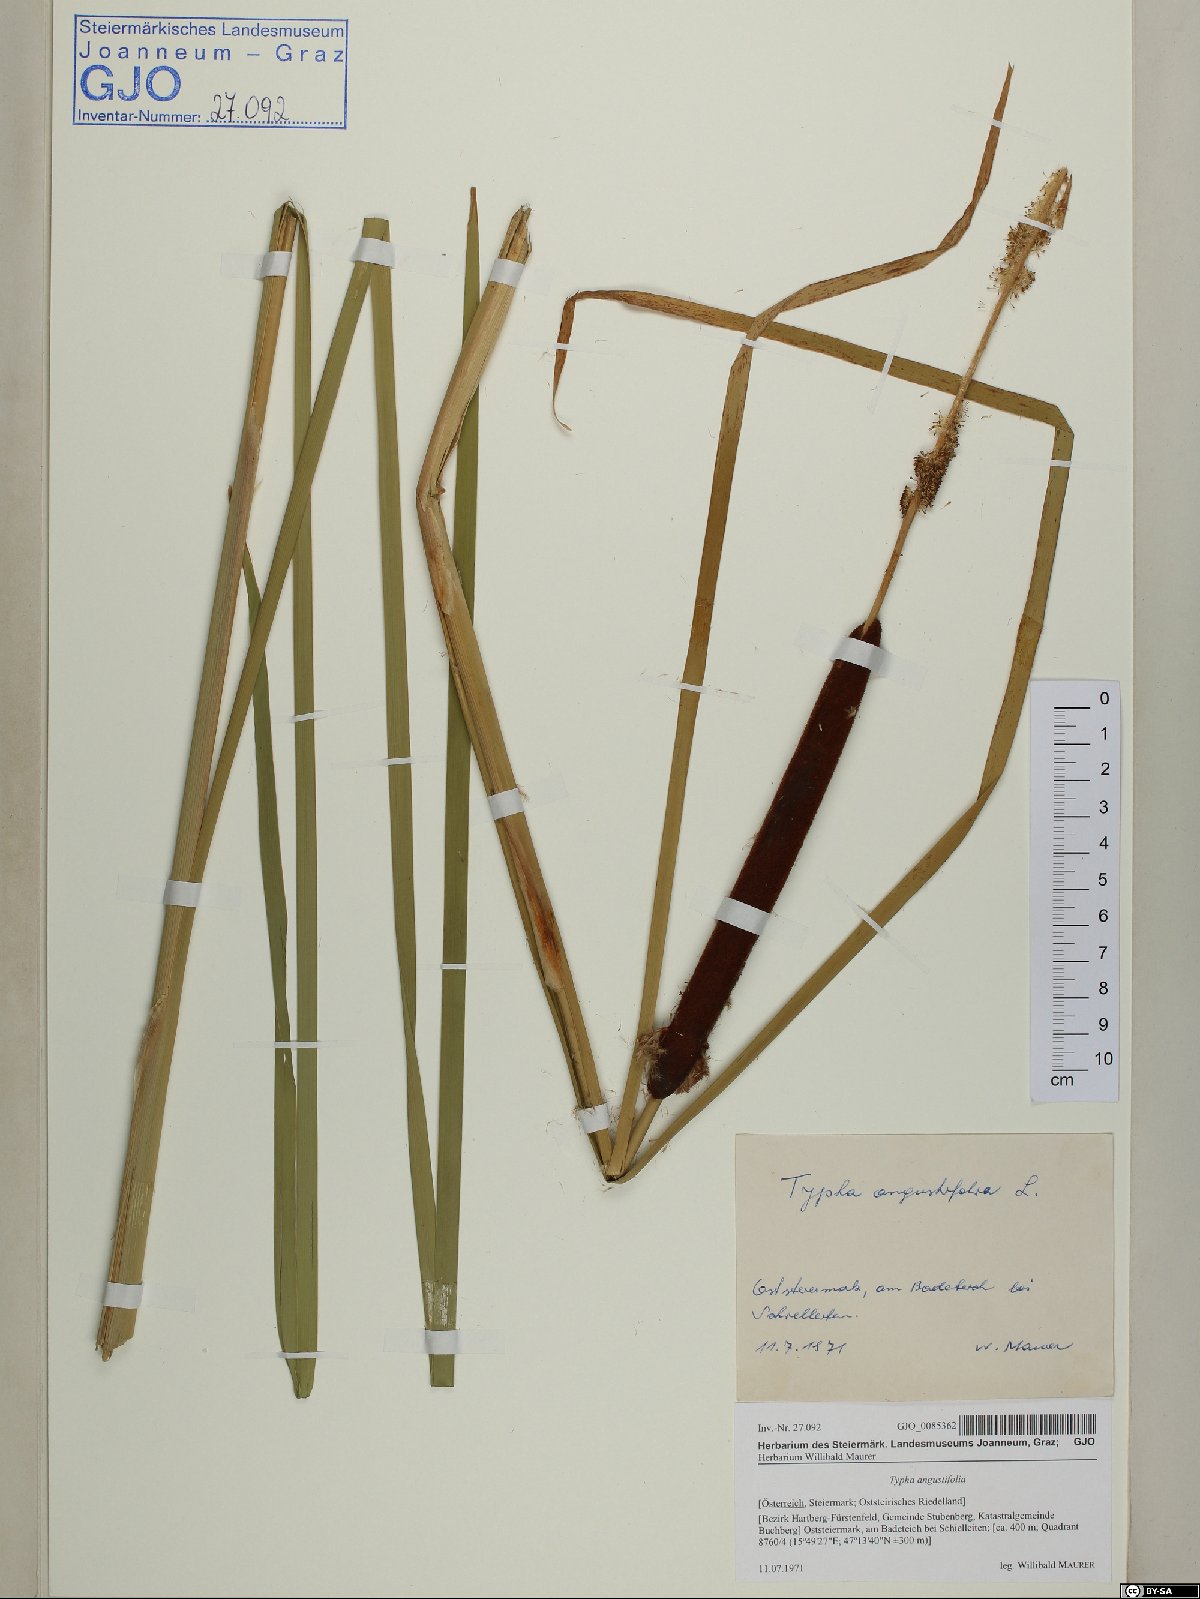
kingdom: Plantae
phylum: Tracheophyta
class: Liliopsida
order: Poales
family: Typhaceae
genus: Typha
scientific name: Typha angustifolia
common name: Lesser bulrush
